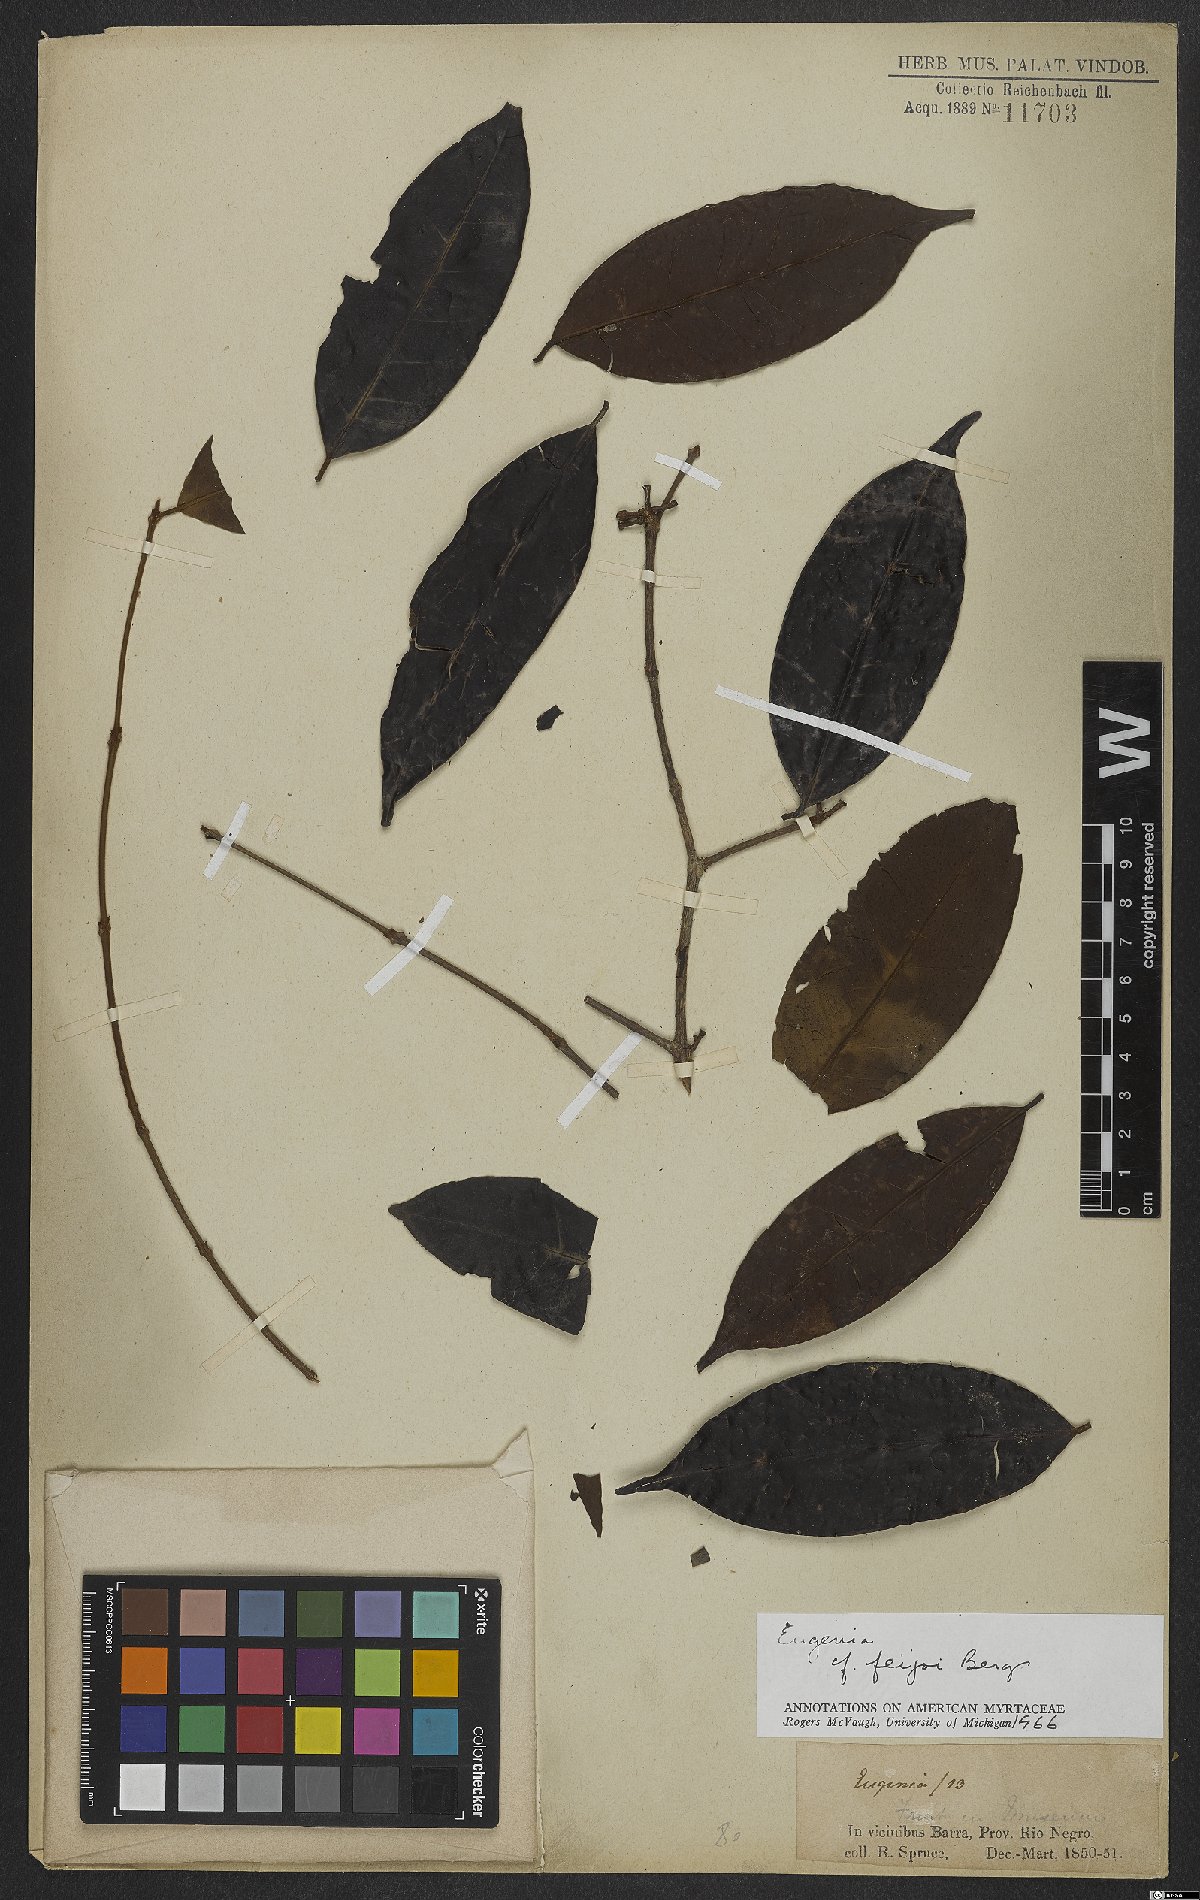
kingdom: Plantae
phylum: Tracheophyta
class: Magnoliopsida
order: Myrtales
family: Myrtaceae
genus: Eugenia
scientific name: Eugenia feijoi
